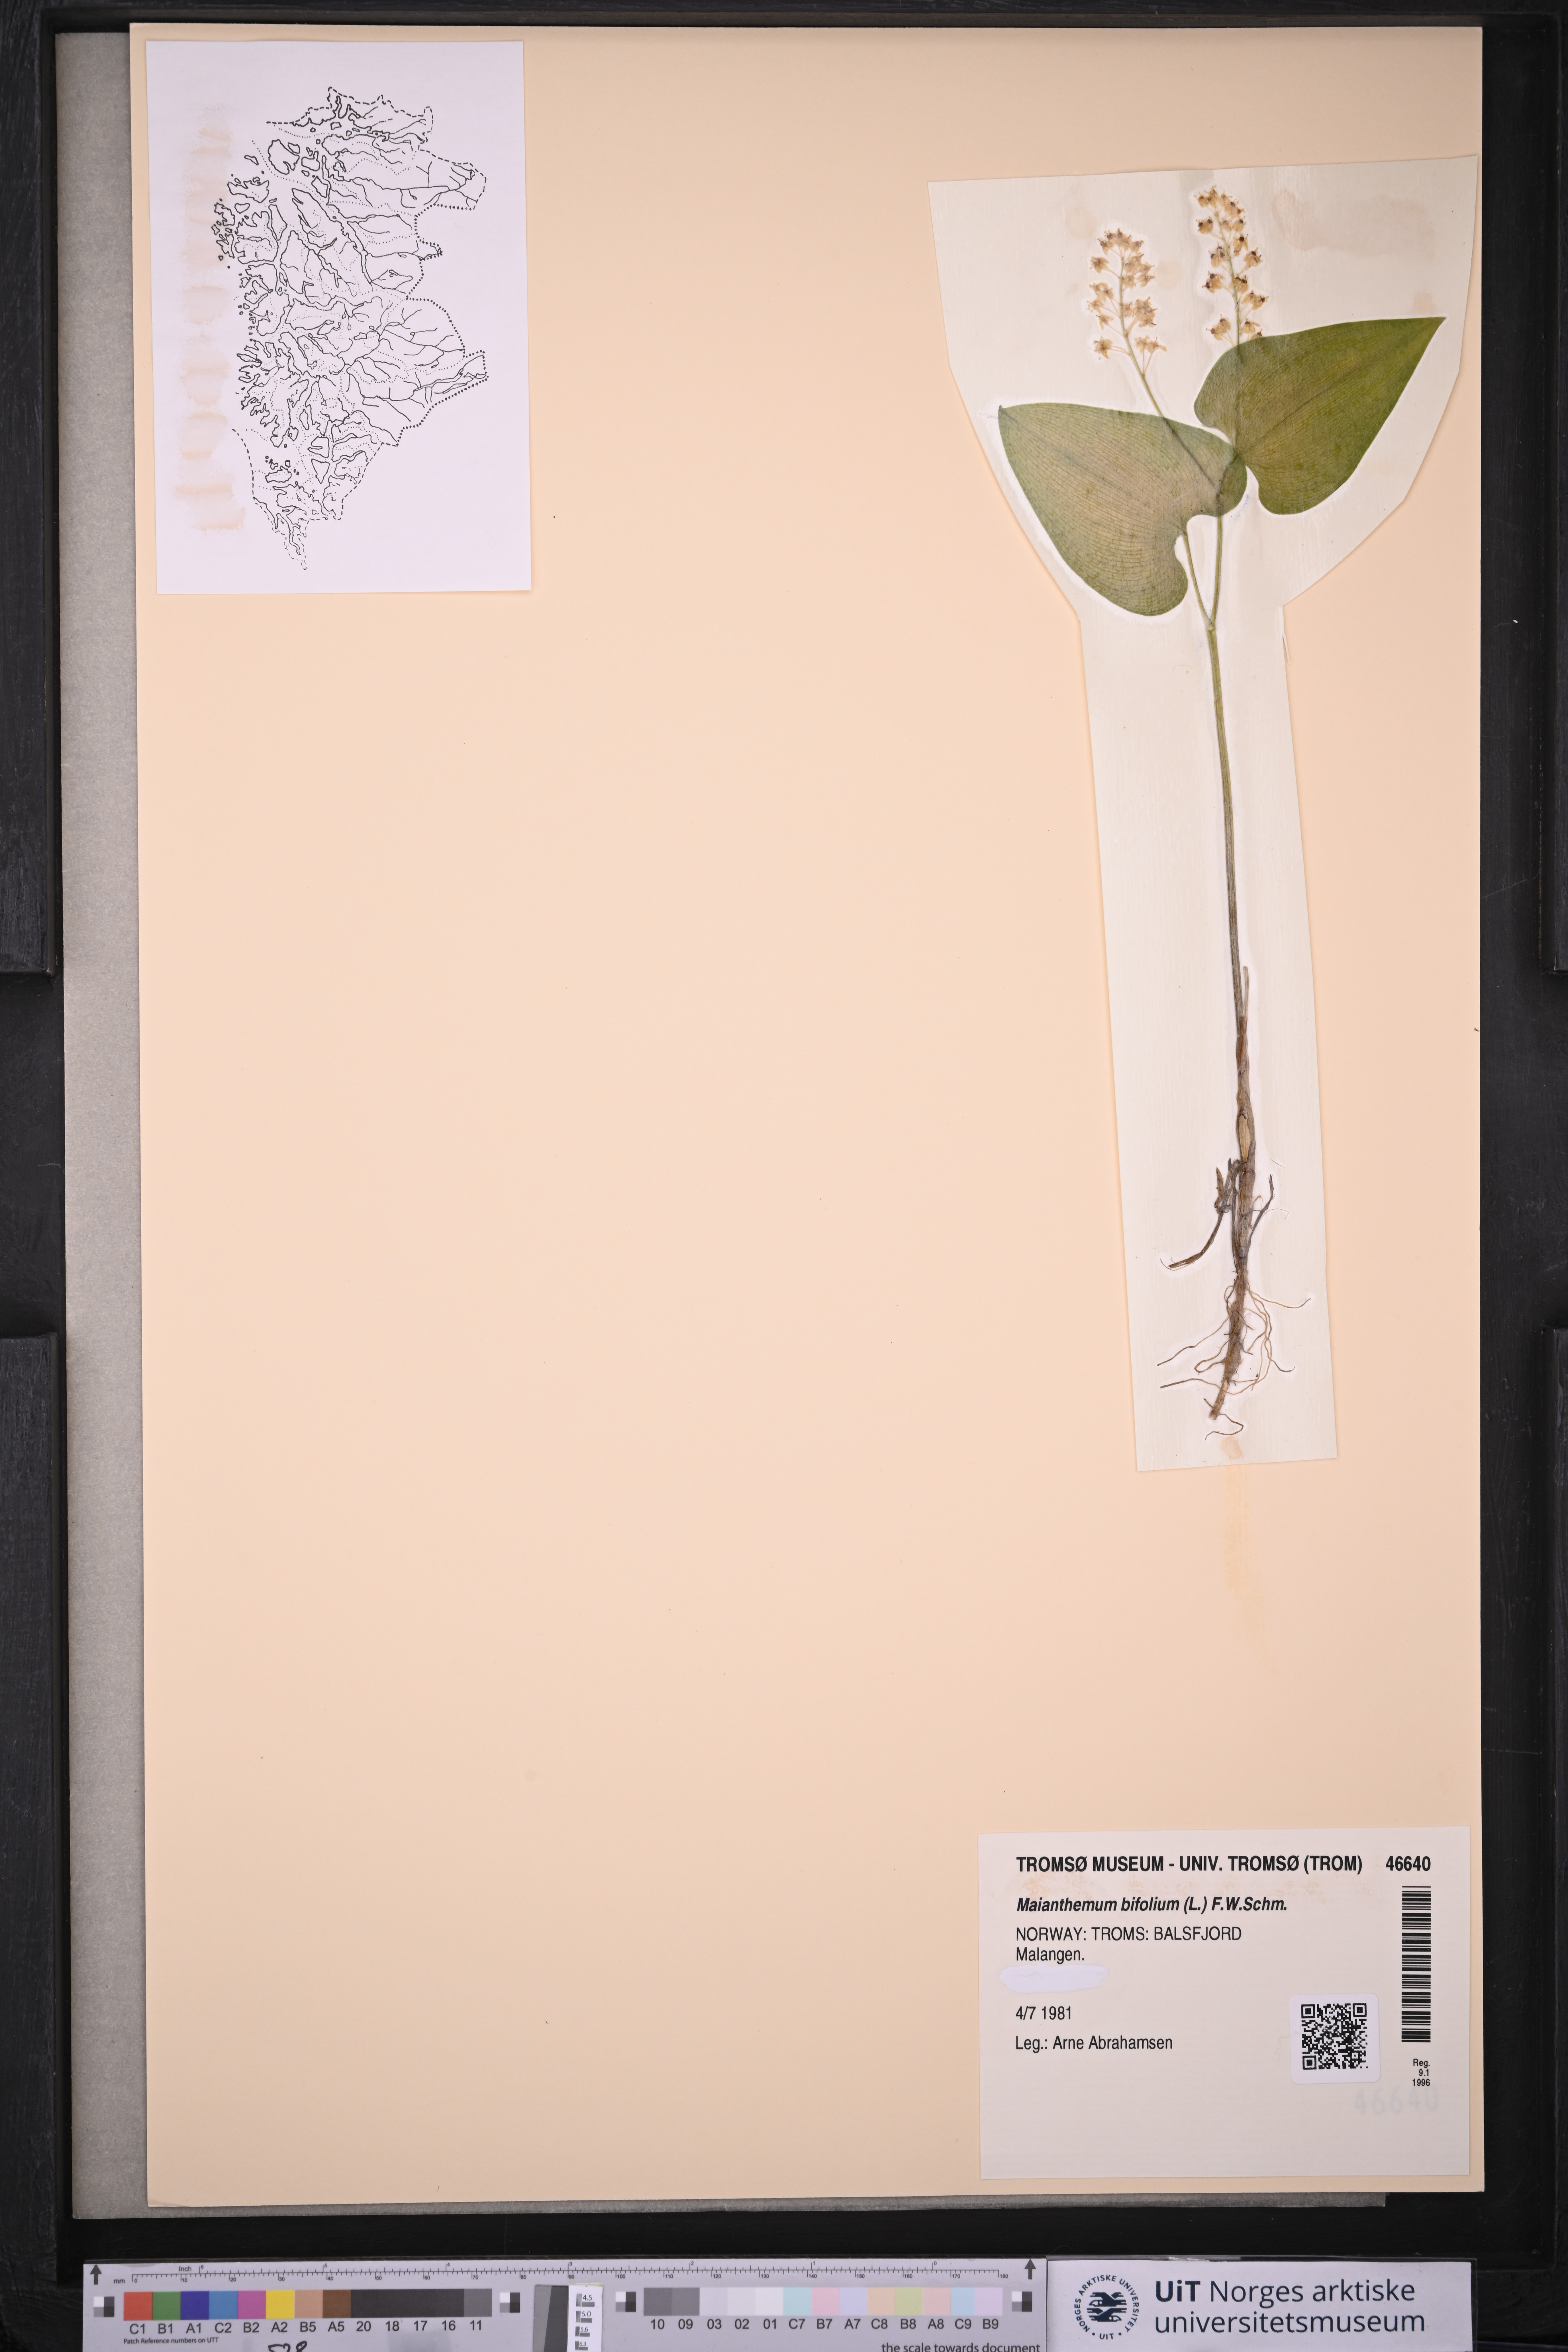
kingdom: Plantae
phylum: Tracheophyta
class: Liliopsida
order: Asparagales
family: Asparagaceae
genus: Maianthemum
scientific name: Maianthemum bifolium
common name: May lily
